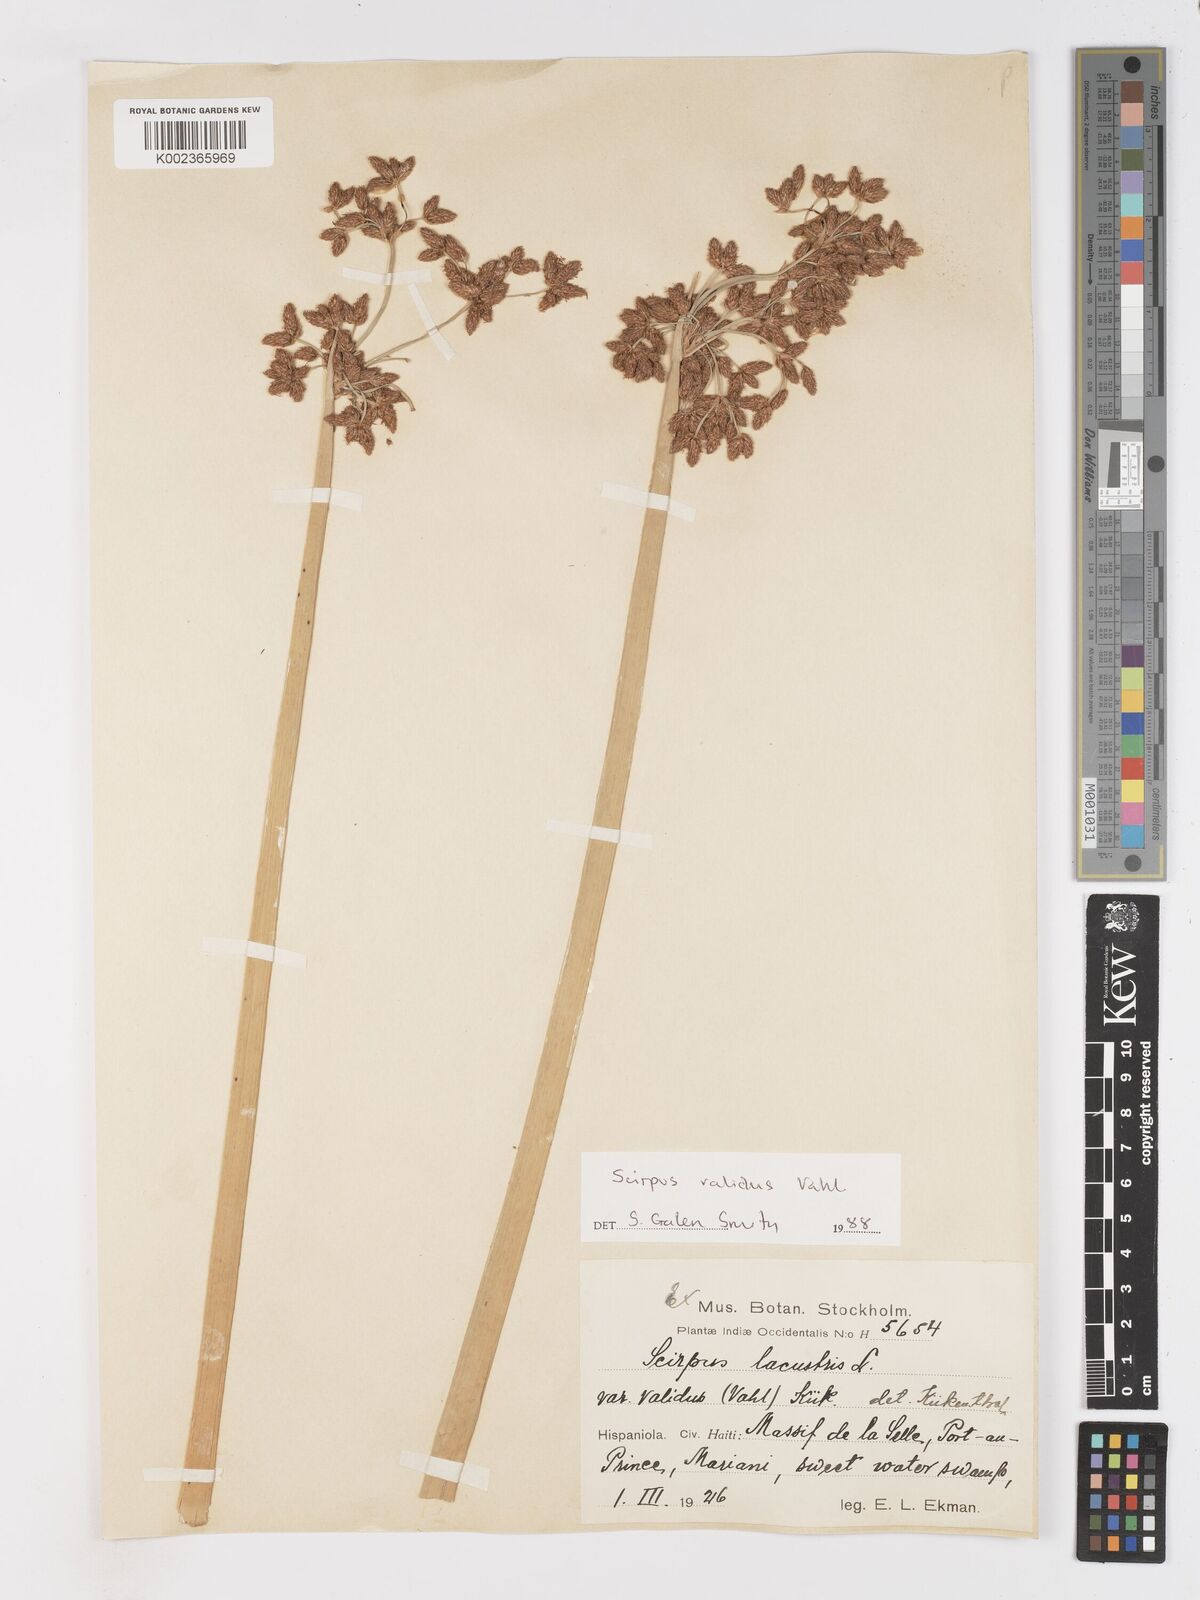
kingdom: Plantae
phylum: Tracheophyta
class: Liliopsida
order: Poales
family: Cyperaceae
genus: Schoenoplectus
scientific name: Schoenoplectus lacustris
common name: Common club-rush
